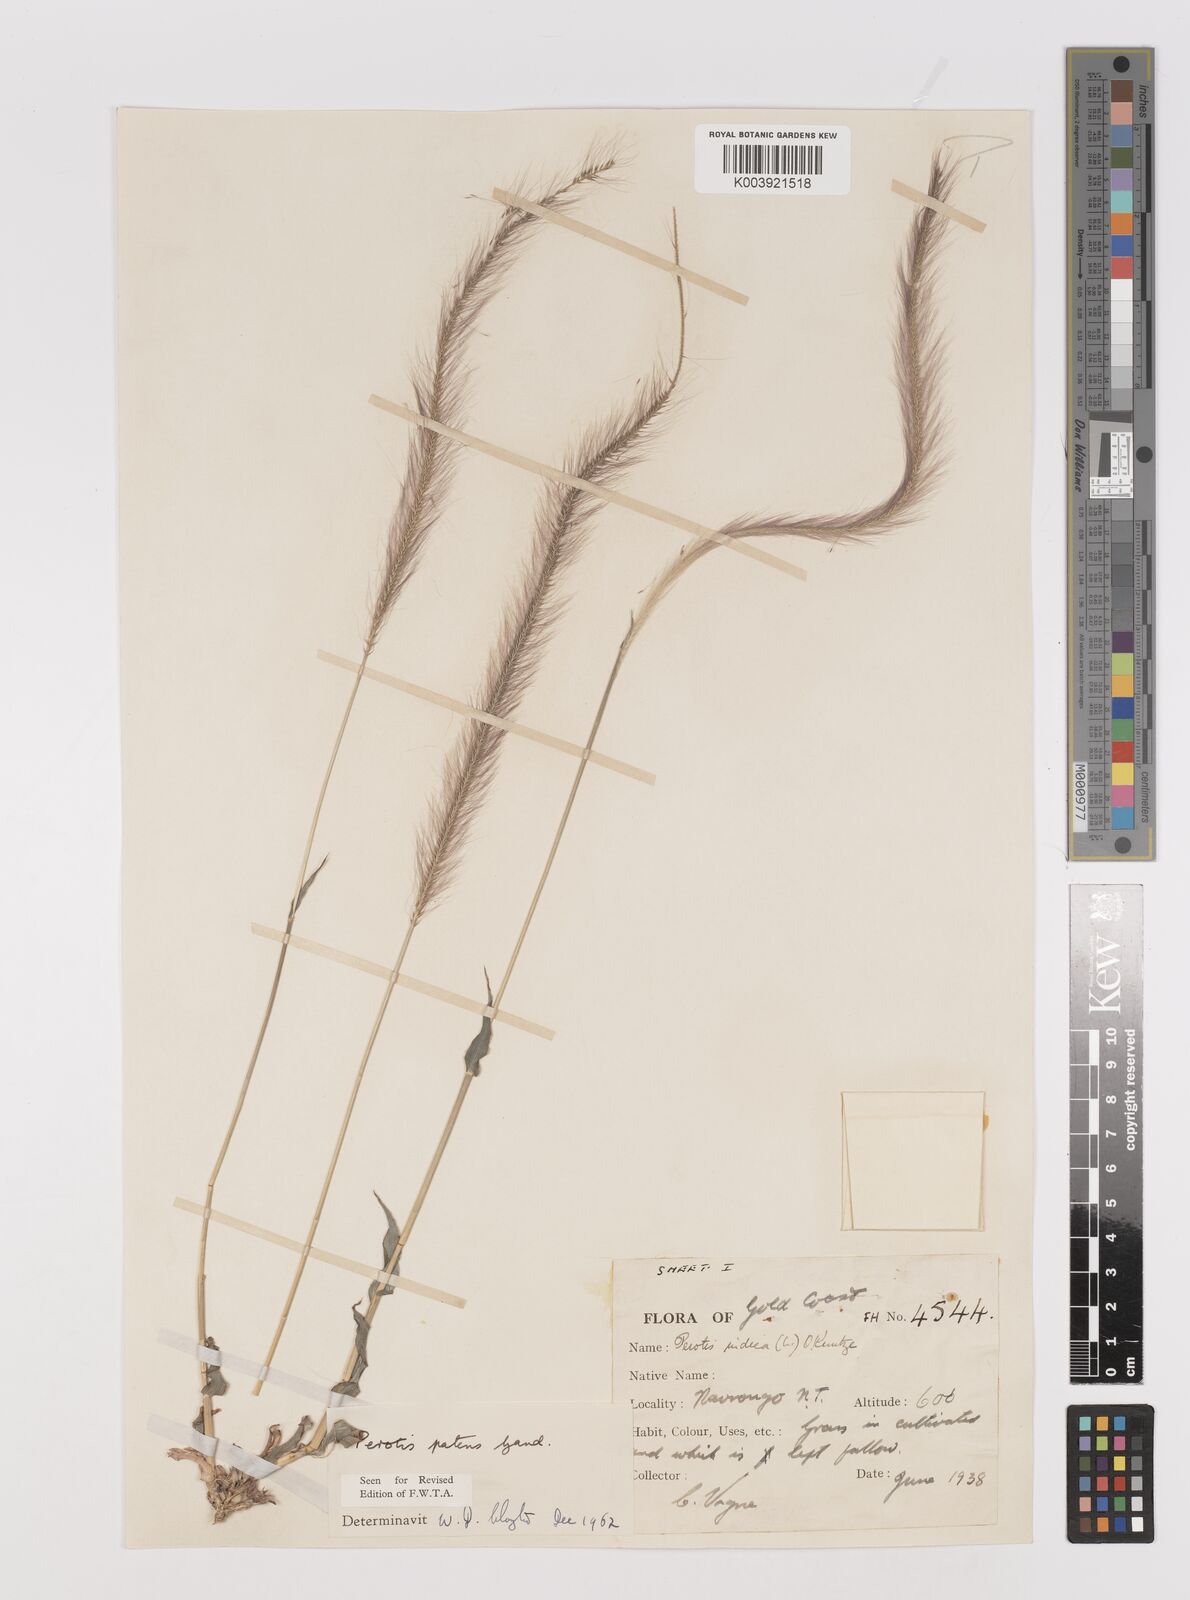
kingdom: Plantae
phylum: Tracheophyta
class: Liliopsida
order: Poales
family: Poaceae
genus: Perotis
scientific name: Perotis patens
